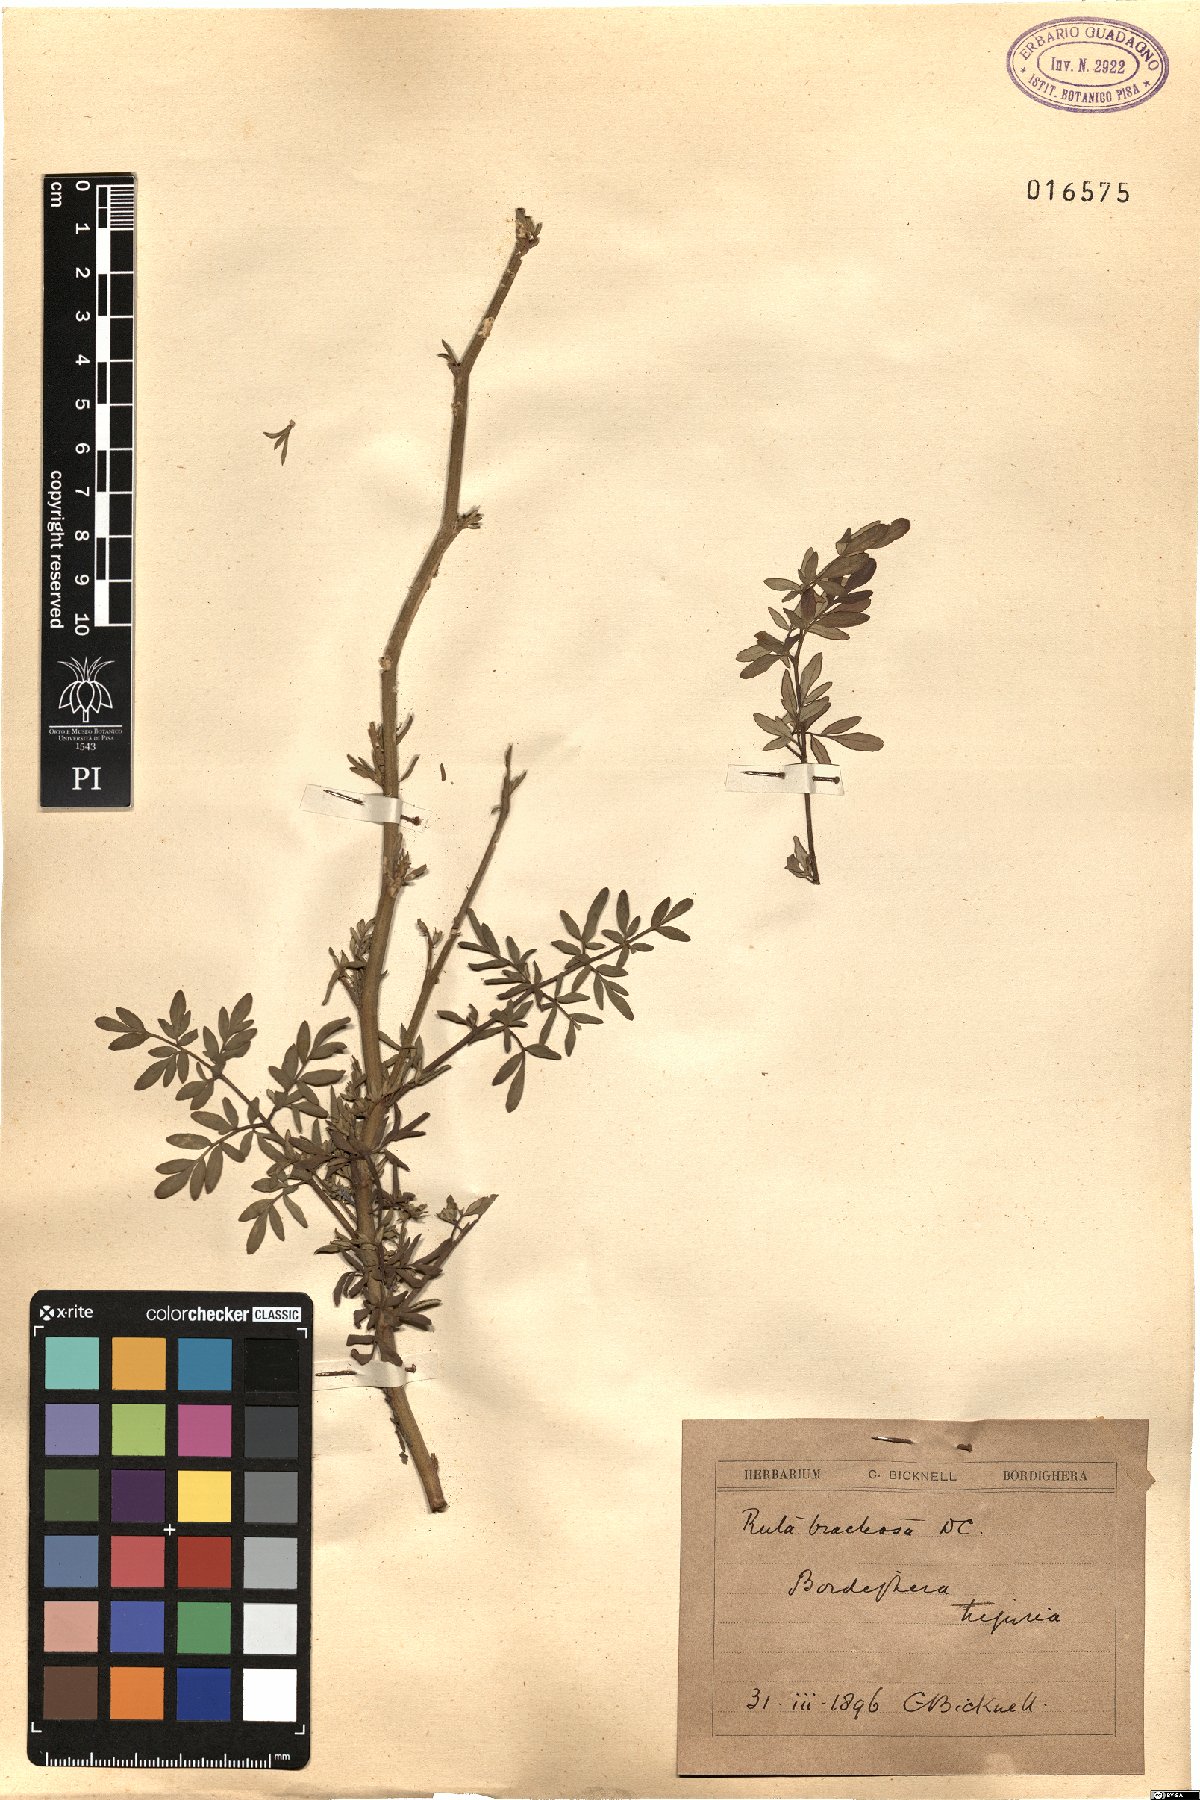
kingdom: Plantae
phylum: Tracheophyta
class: Magnoliopsida
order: Sapindales
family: Rutaceae
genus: Ruta
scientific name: Ruta chalepensis
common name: Fringed rue
